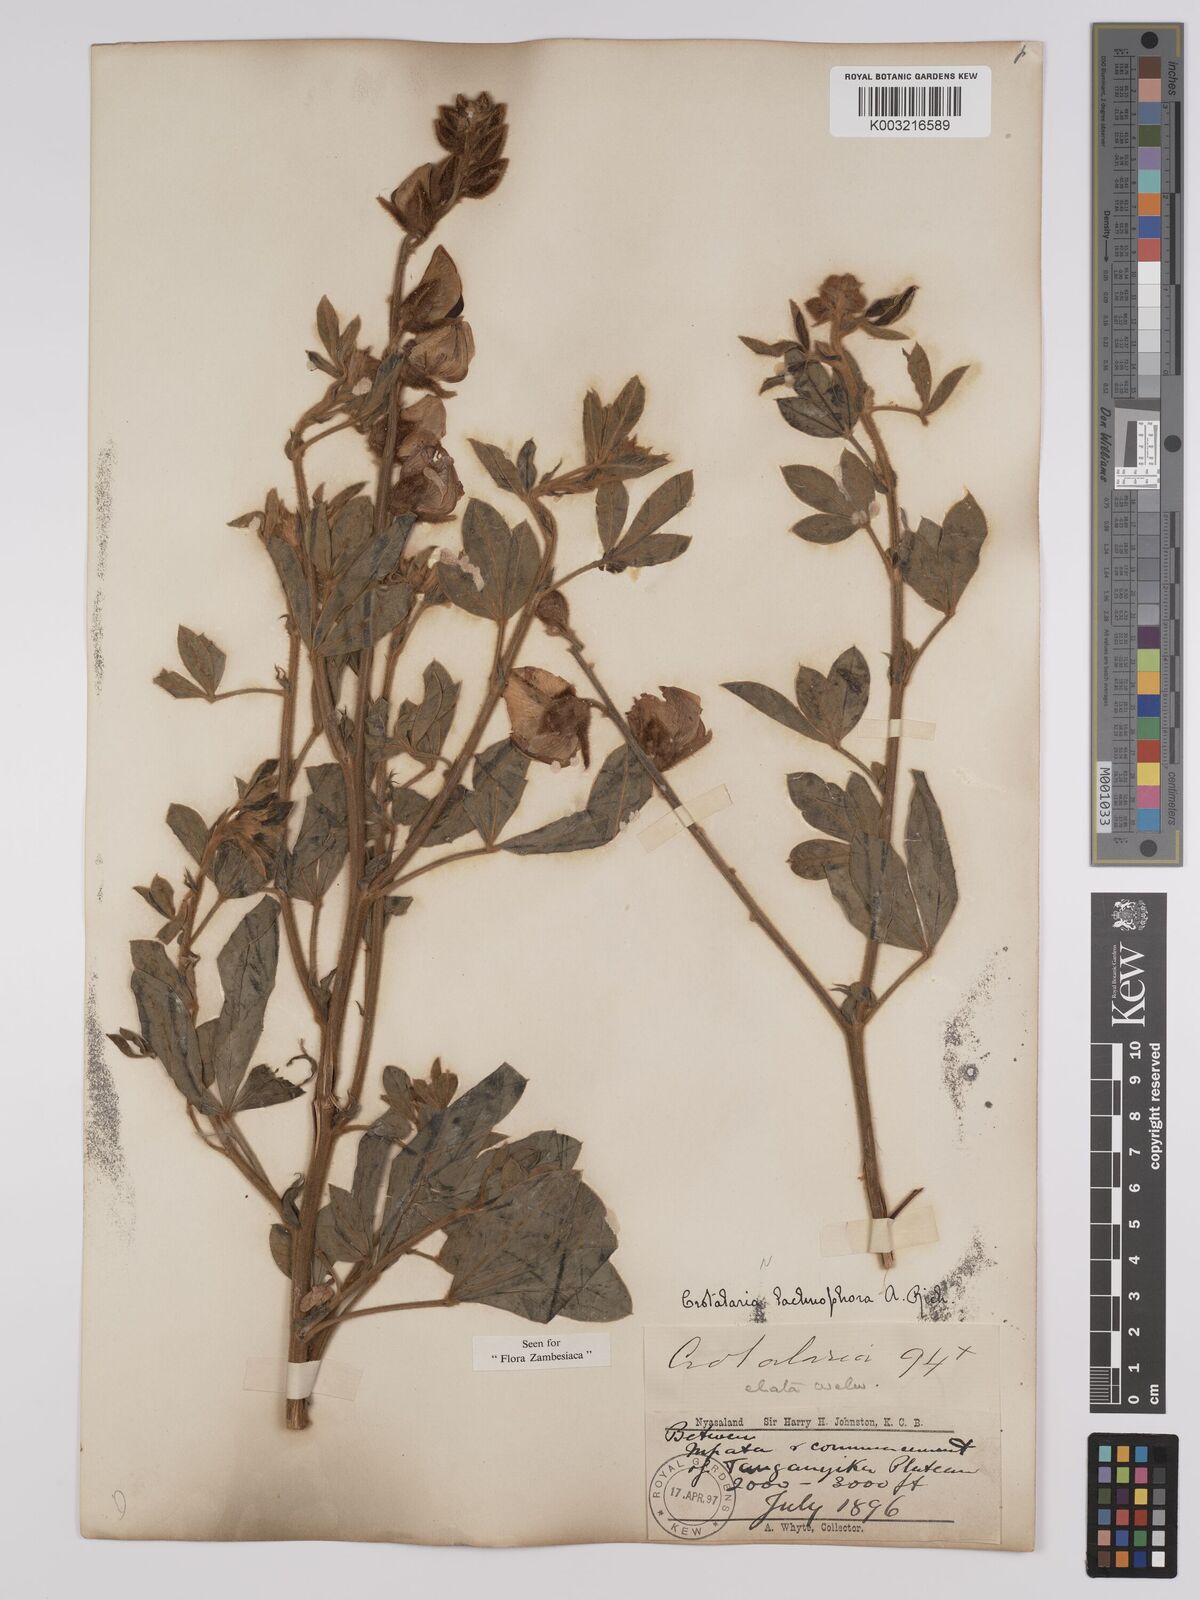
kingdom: Plantae
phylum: Tracheophyta
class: Magnoliopsida
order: Fabales
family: Fabaceae
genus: Crotalaria
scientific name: Crotalaria lachnophora
